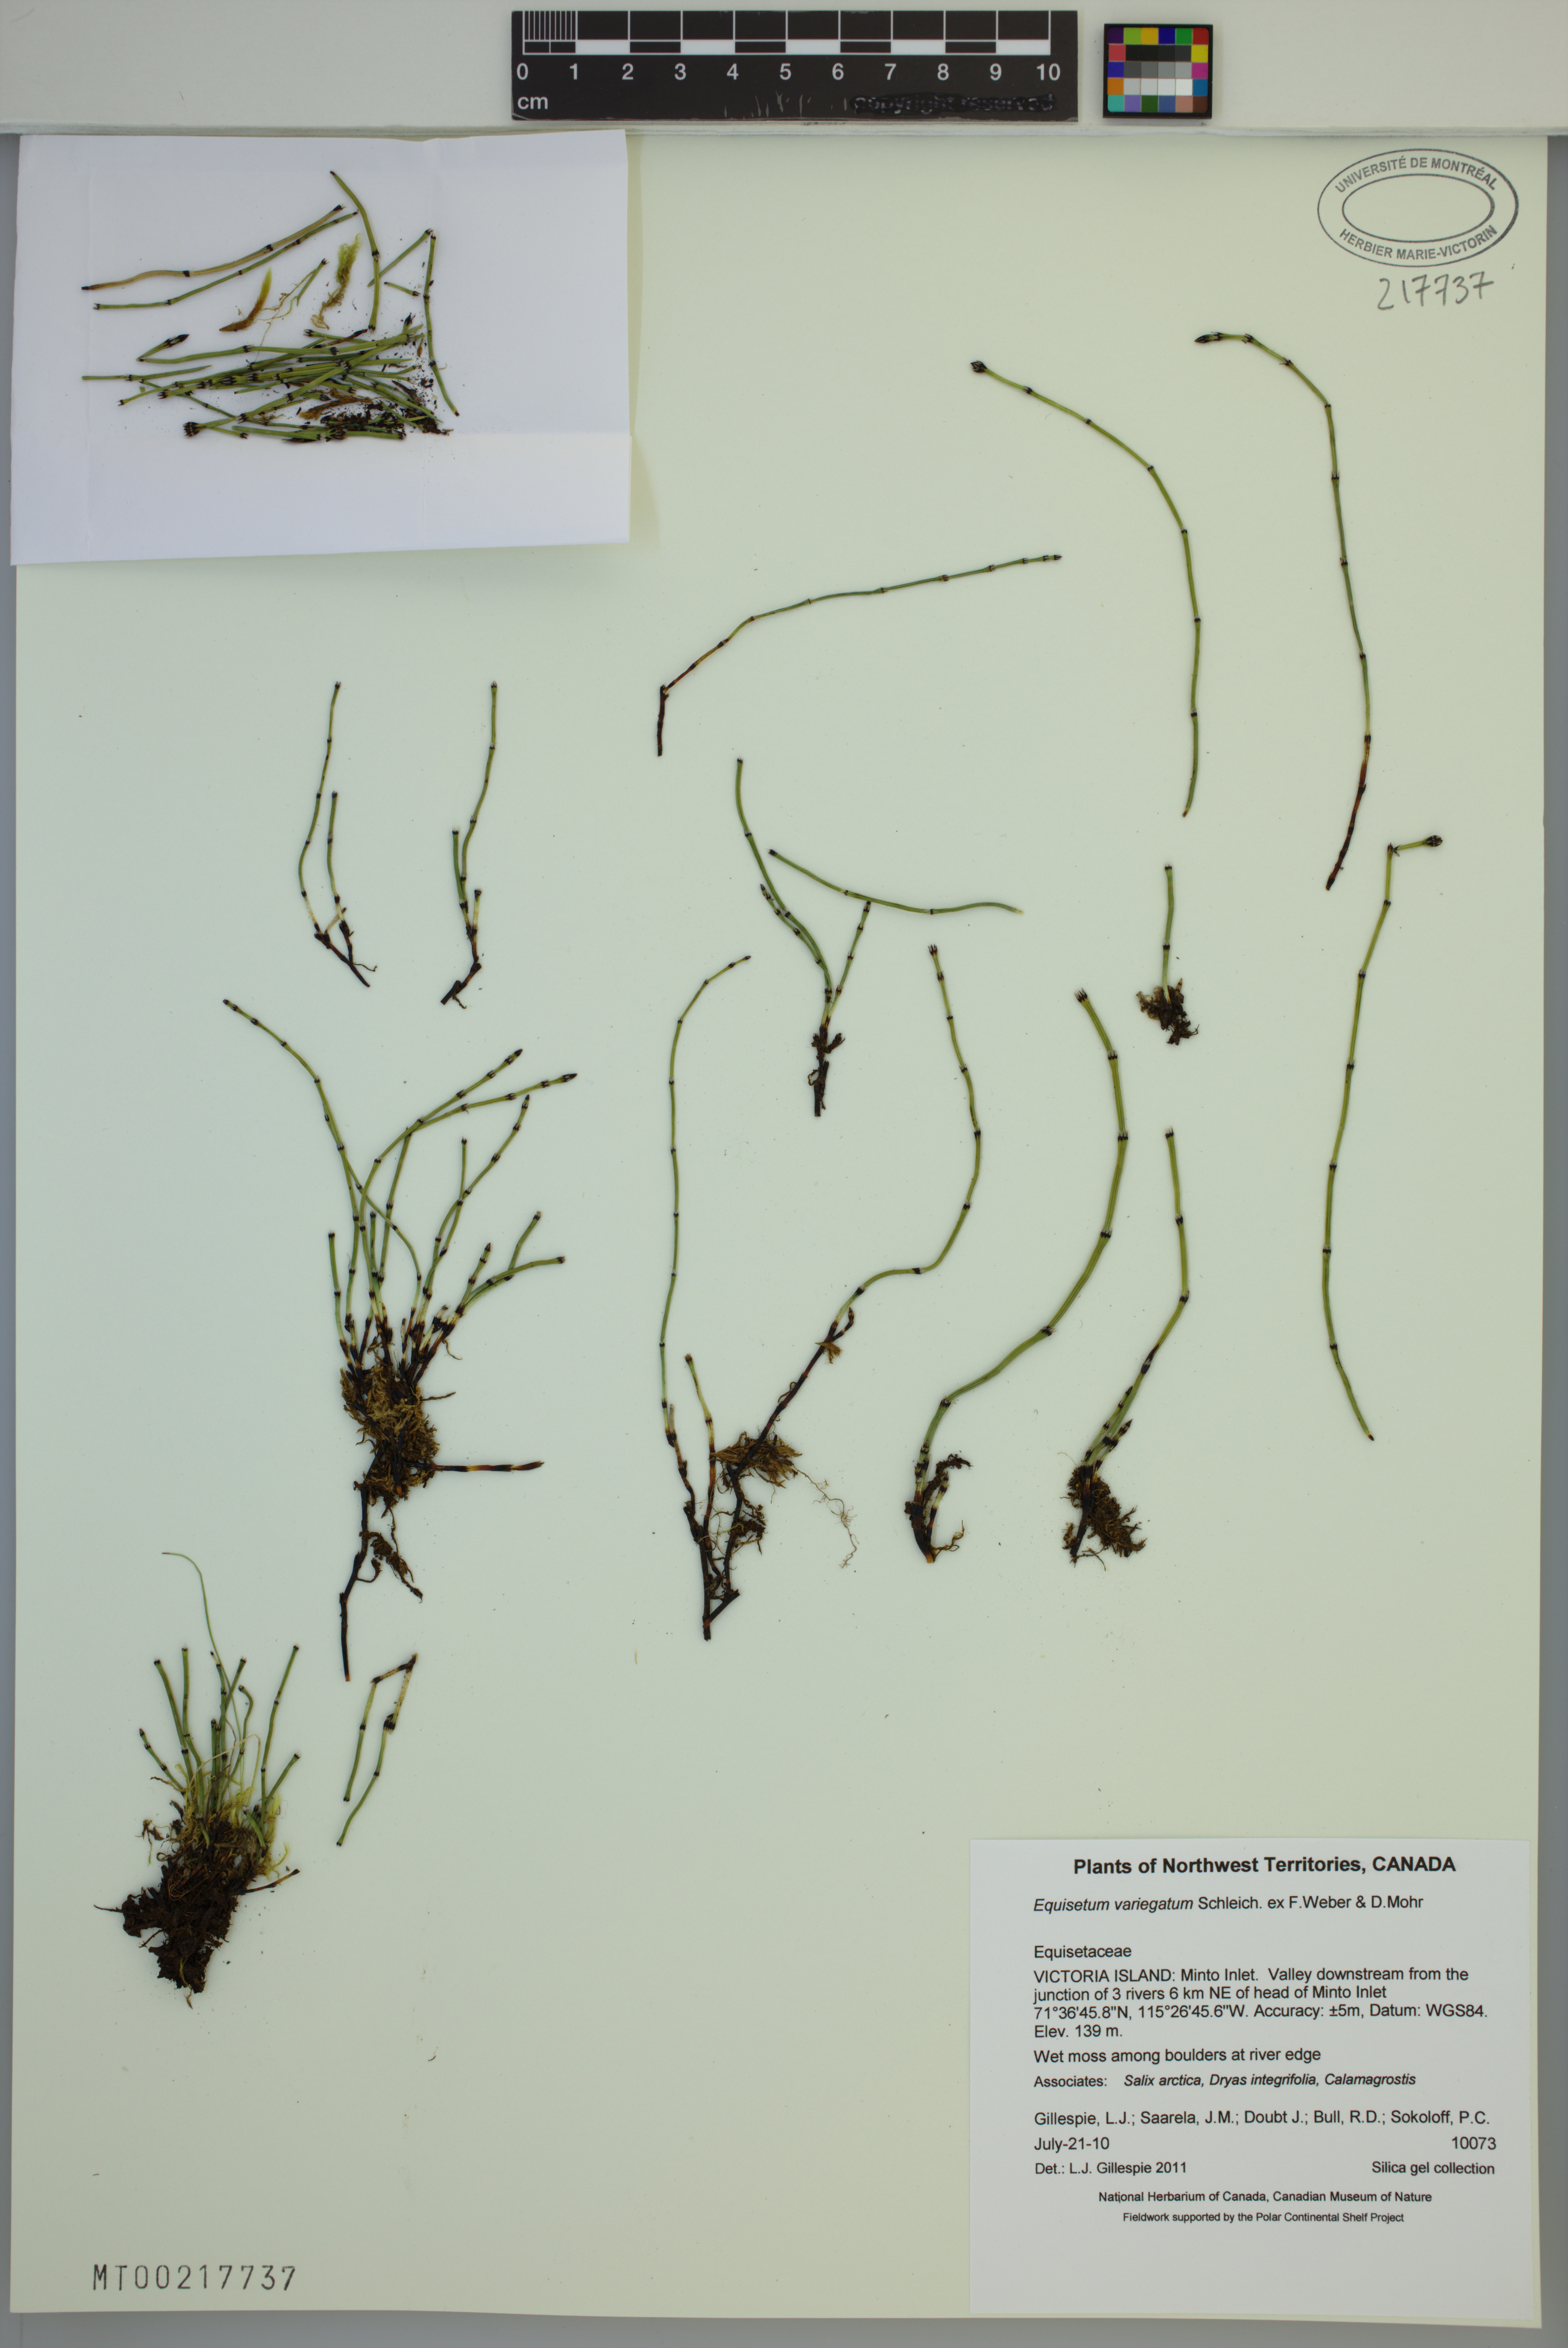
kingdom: Plantae
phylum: Tracheophyta
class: Polypodiopsida
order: Equisetales
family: Equisetaceae
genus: Equisetum
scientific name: Equisetum variegatum
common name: Variegated horsetail
